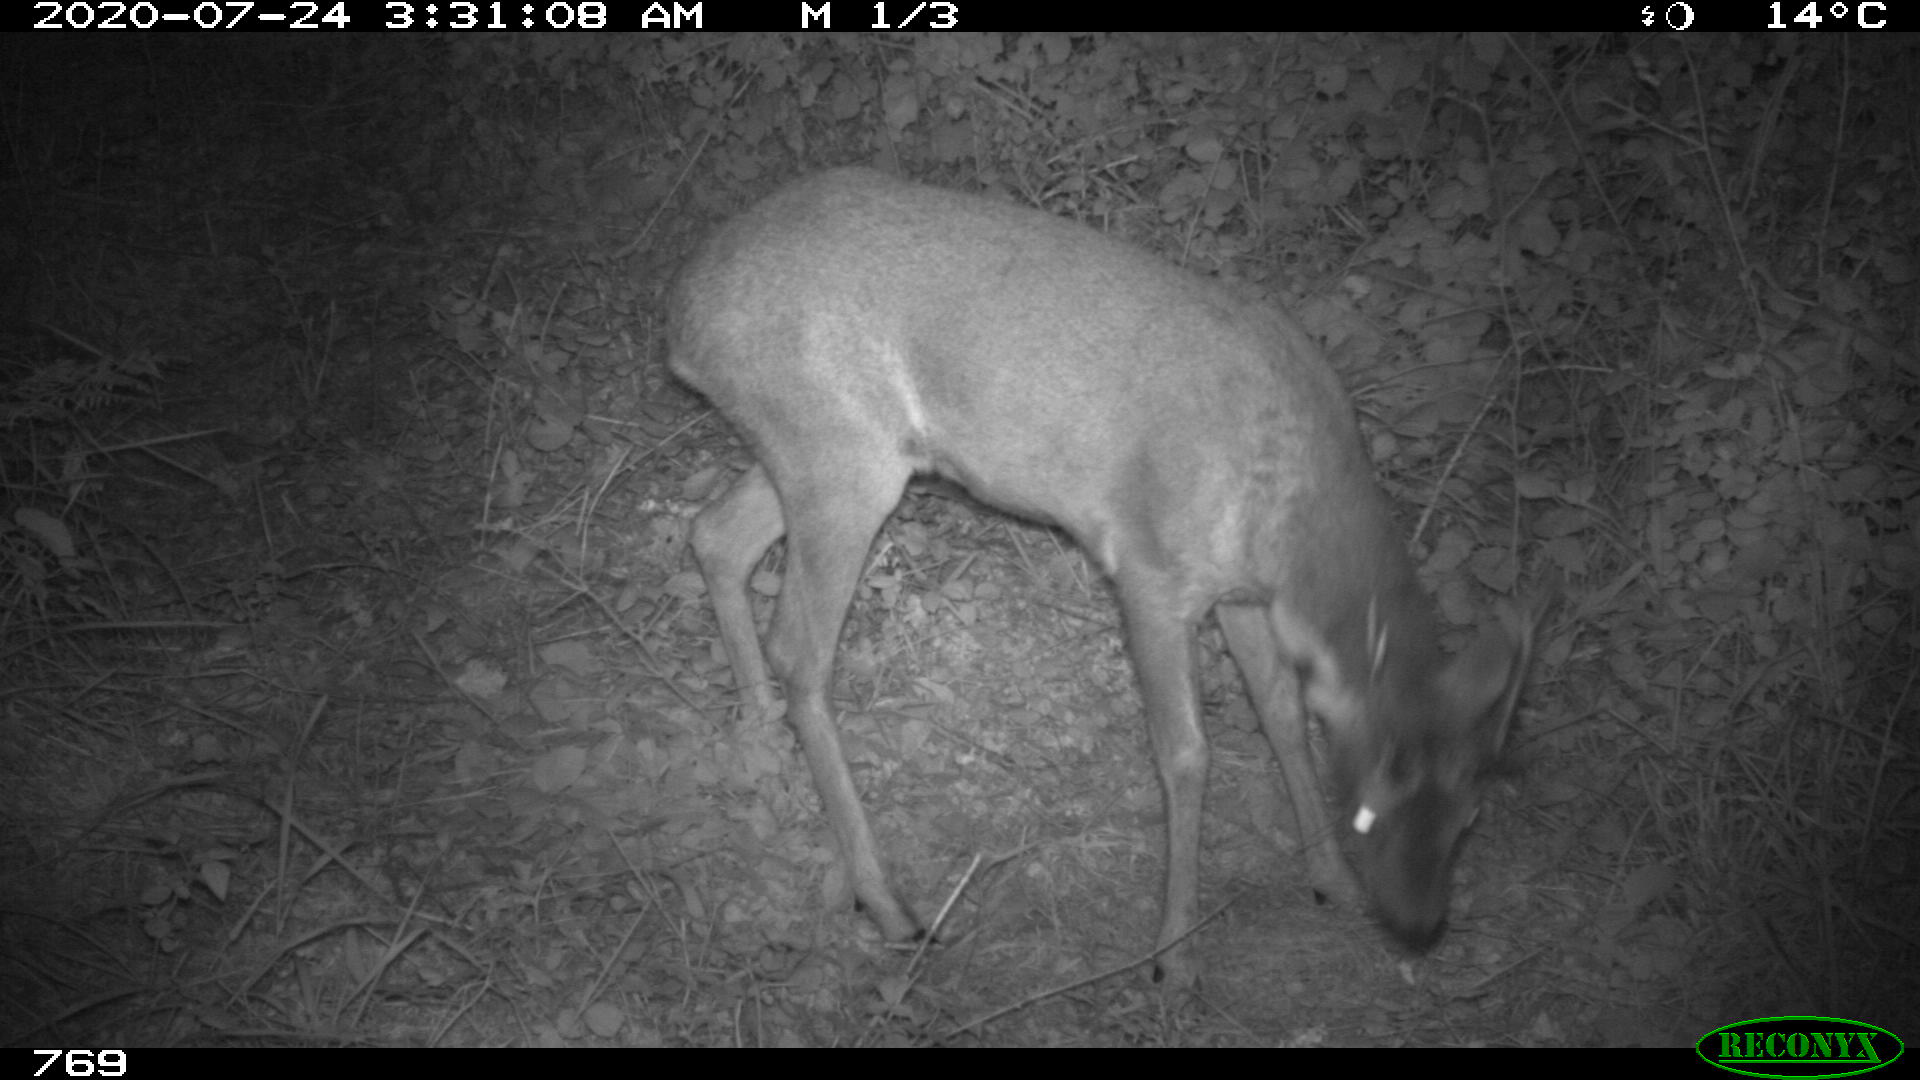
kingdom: Animalia
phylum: Chordata
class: Mammalia
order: Artiodactyla
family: Cervidae
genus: Capreolus
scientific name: Capreolus capreolus
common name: Western roe deer
